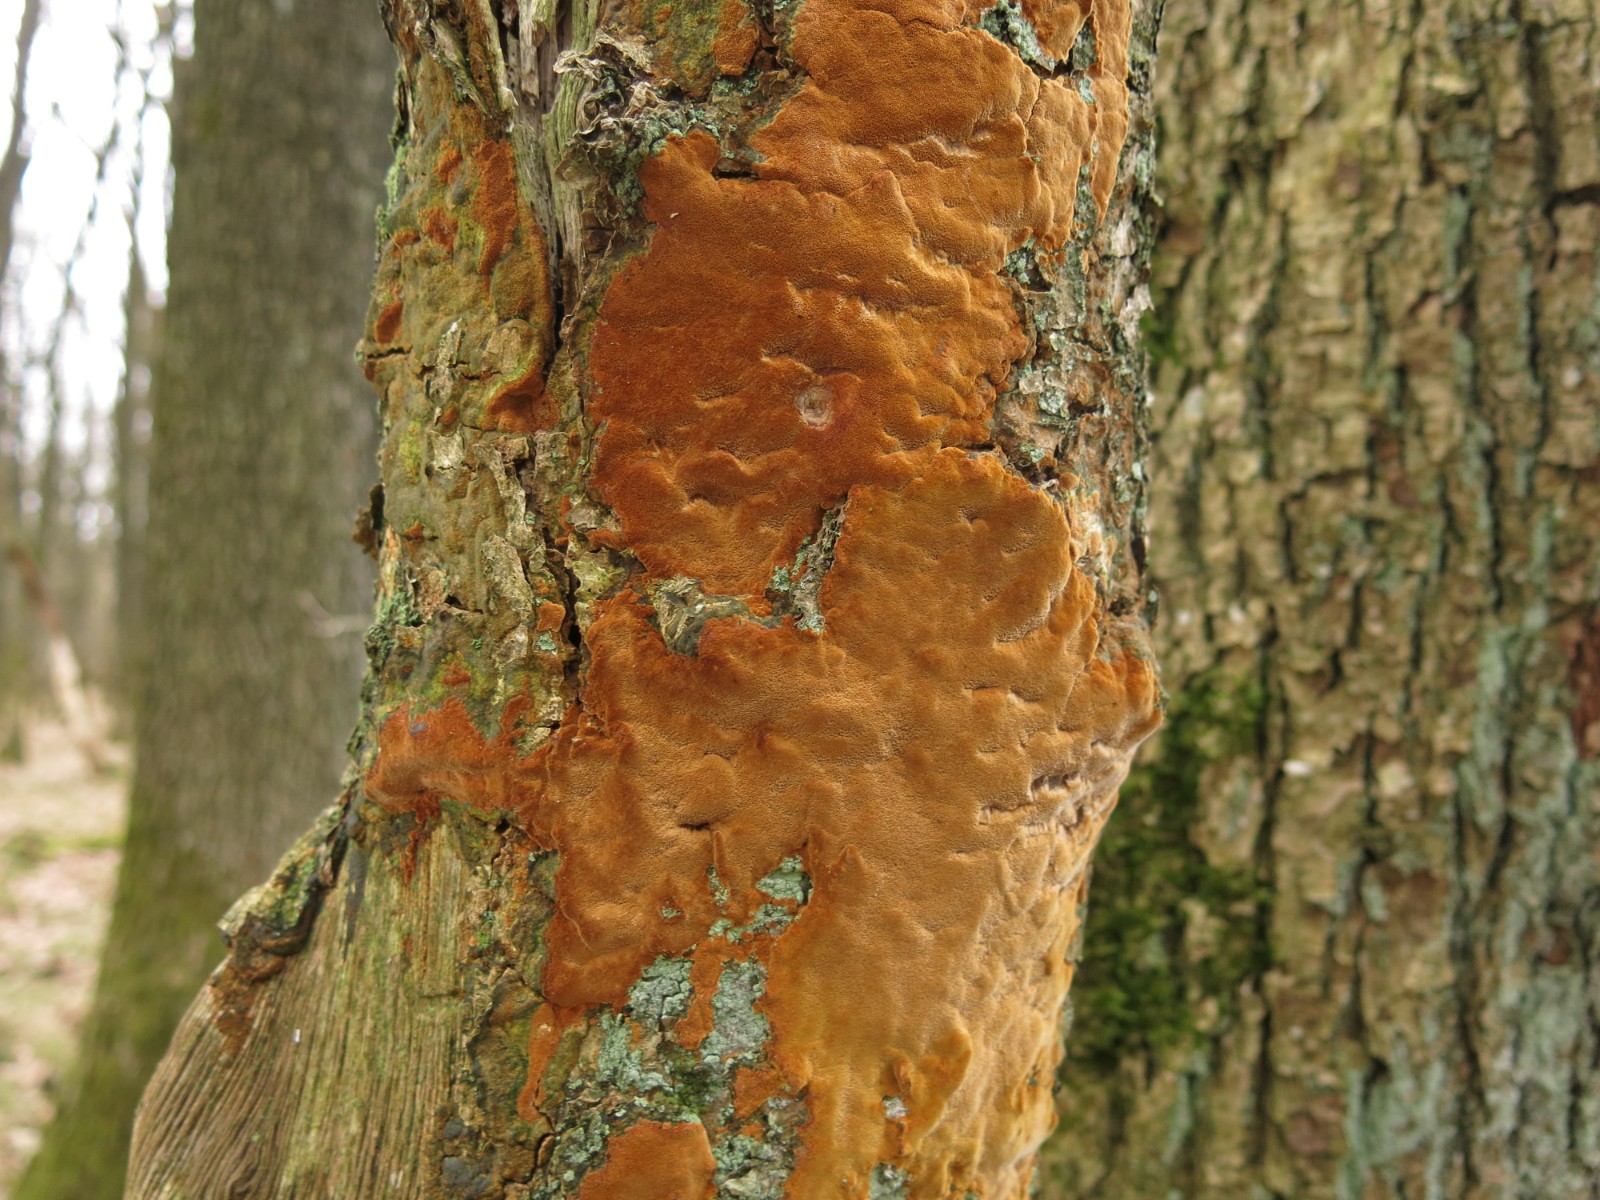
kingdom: Fungi
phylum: Basidiomycota
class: Agaricomycetes
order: Hymenochaetales
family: Hymenochaetaceae
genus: Fuscoporia
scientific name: Fuscoporia ferrea
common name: skorpe-ildporesvamp
